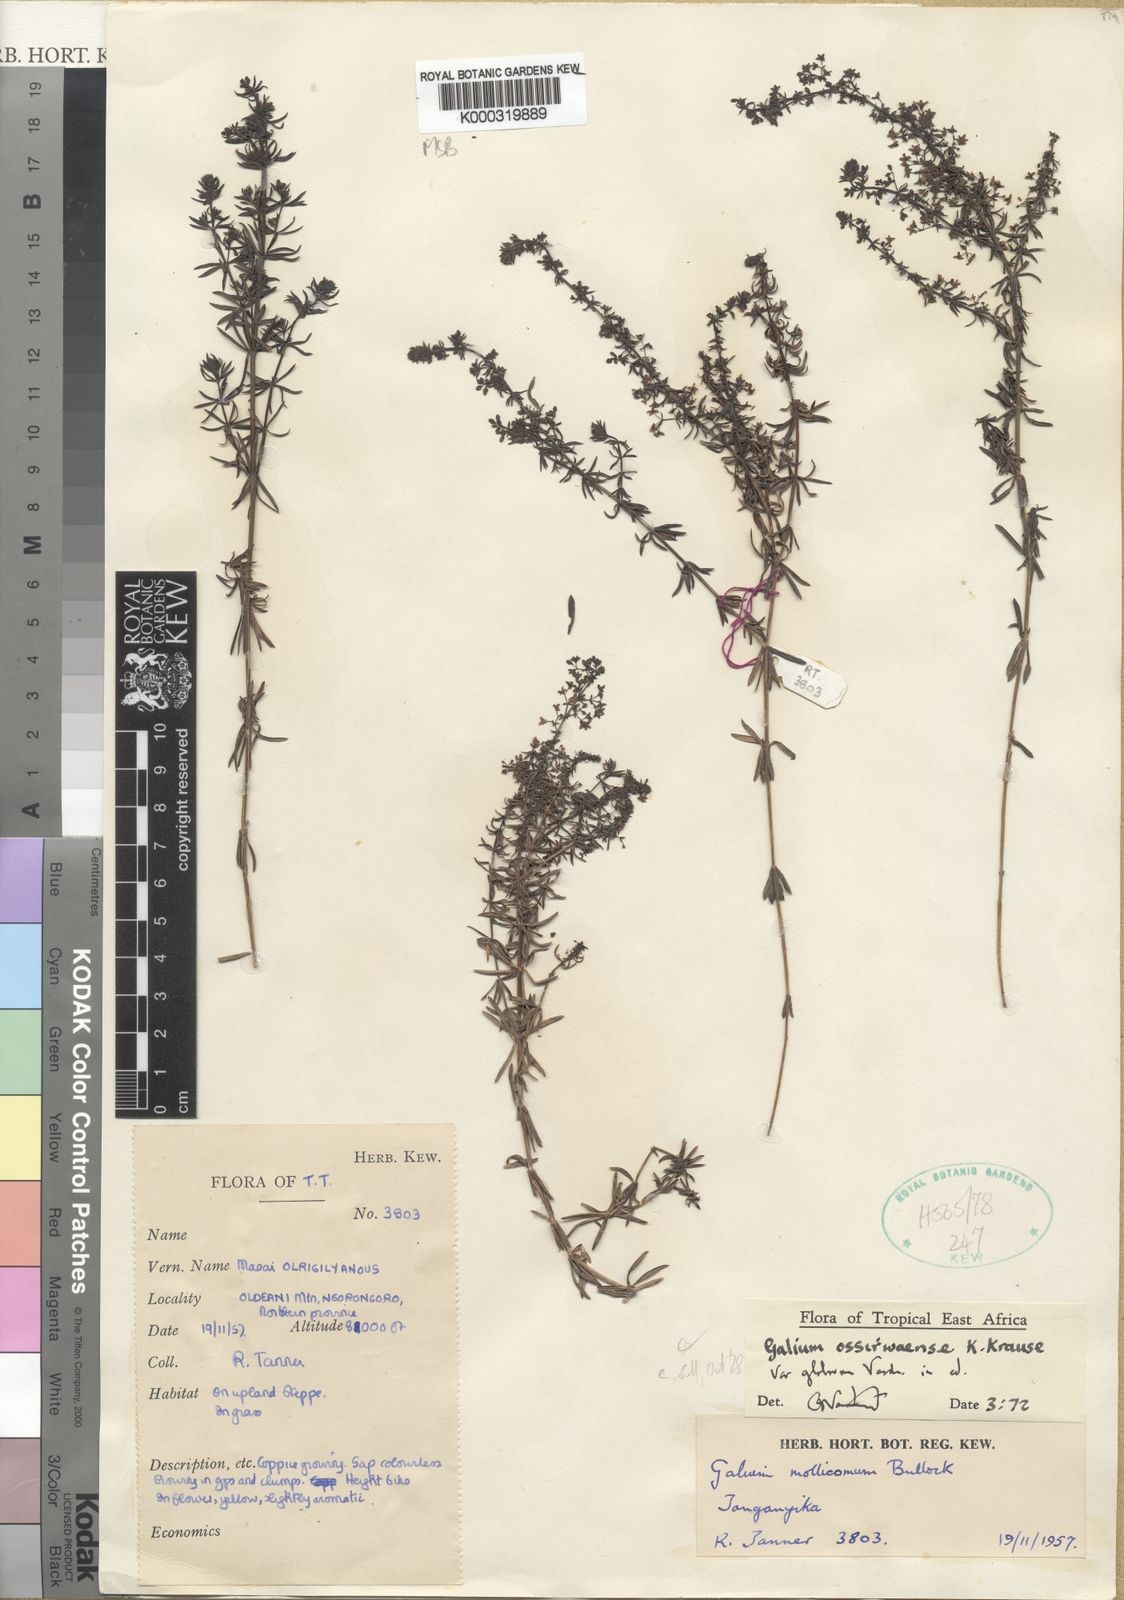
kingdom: Plantae
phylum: Tracheophyta
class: Magnoliopsida
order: Gentianales
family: Rubiaceae
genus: Galium
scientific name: Galium ossirwaense
